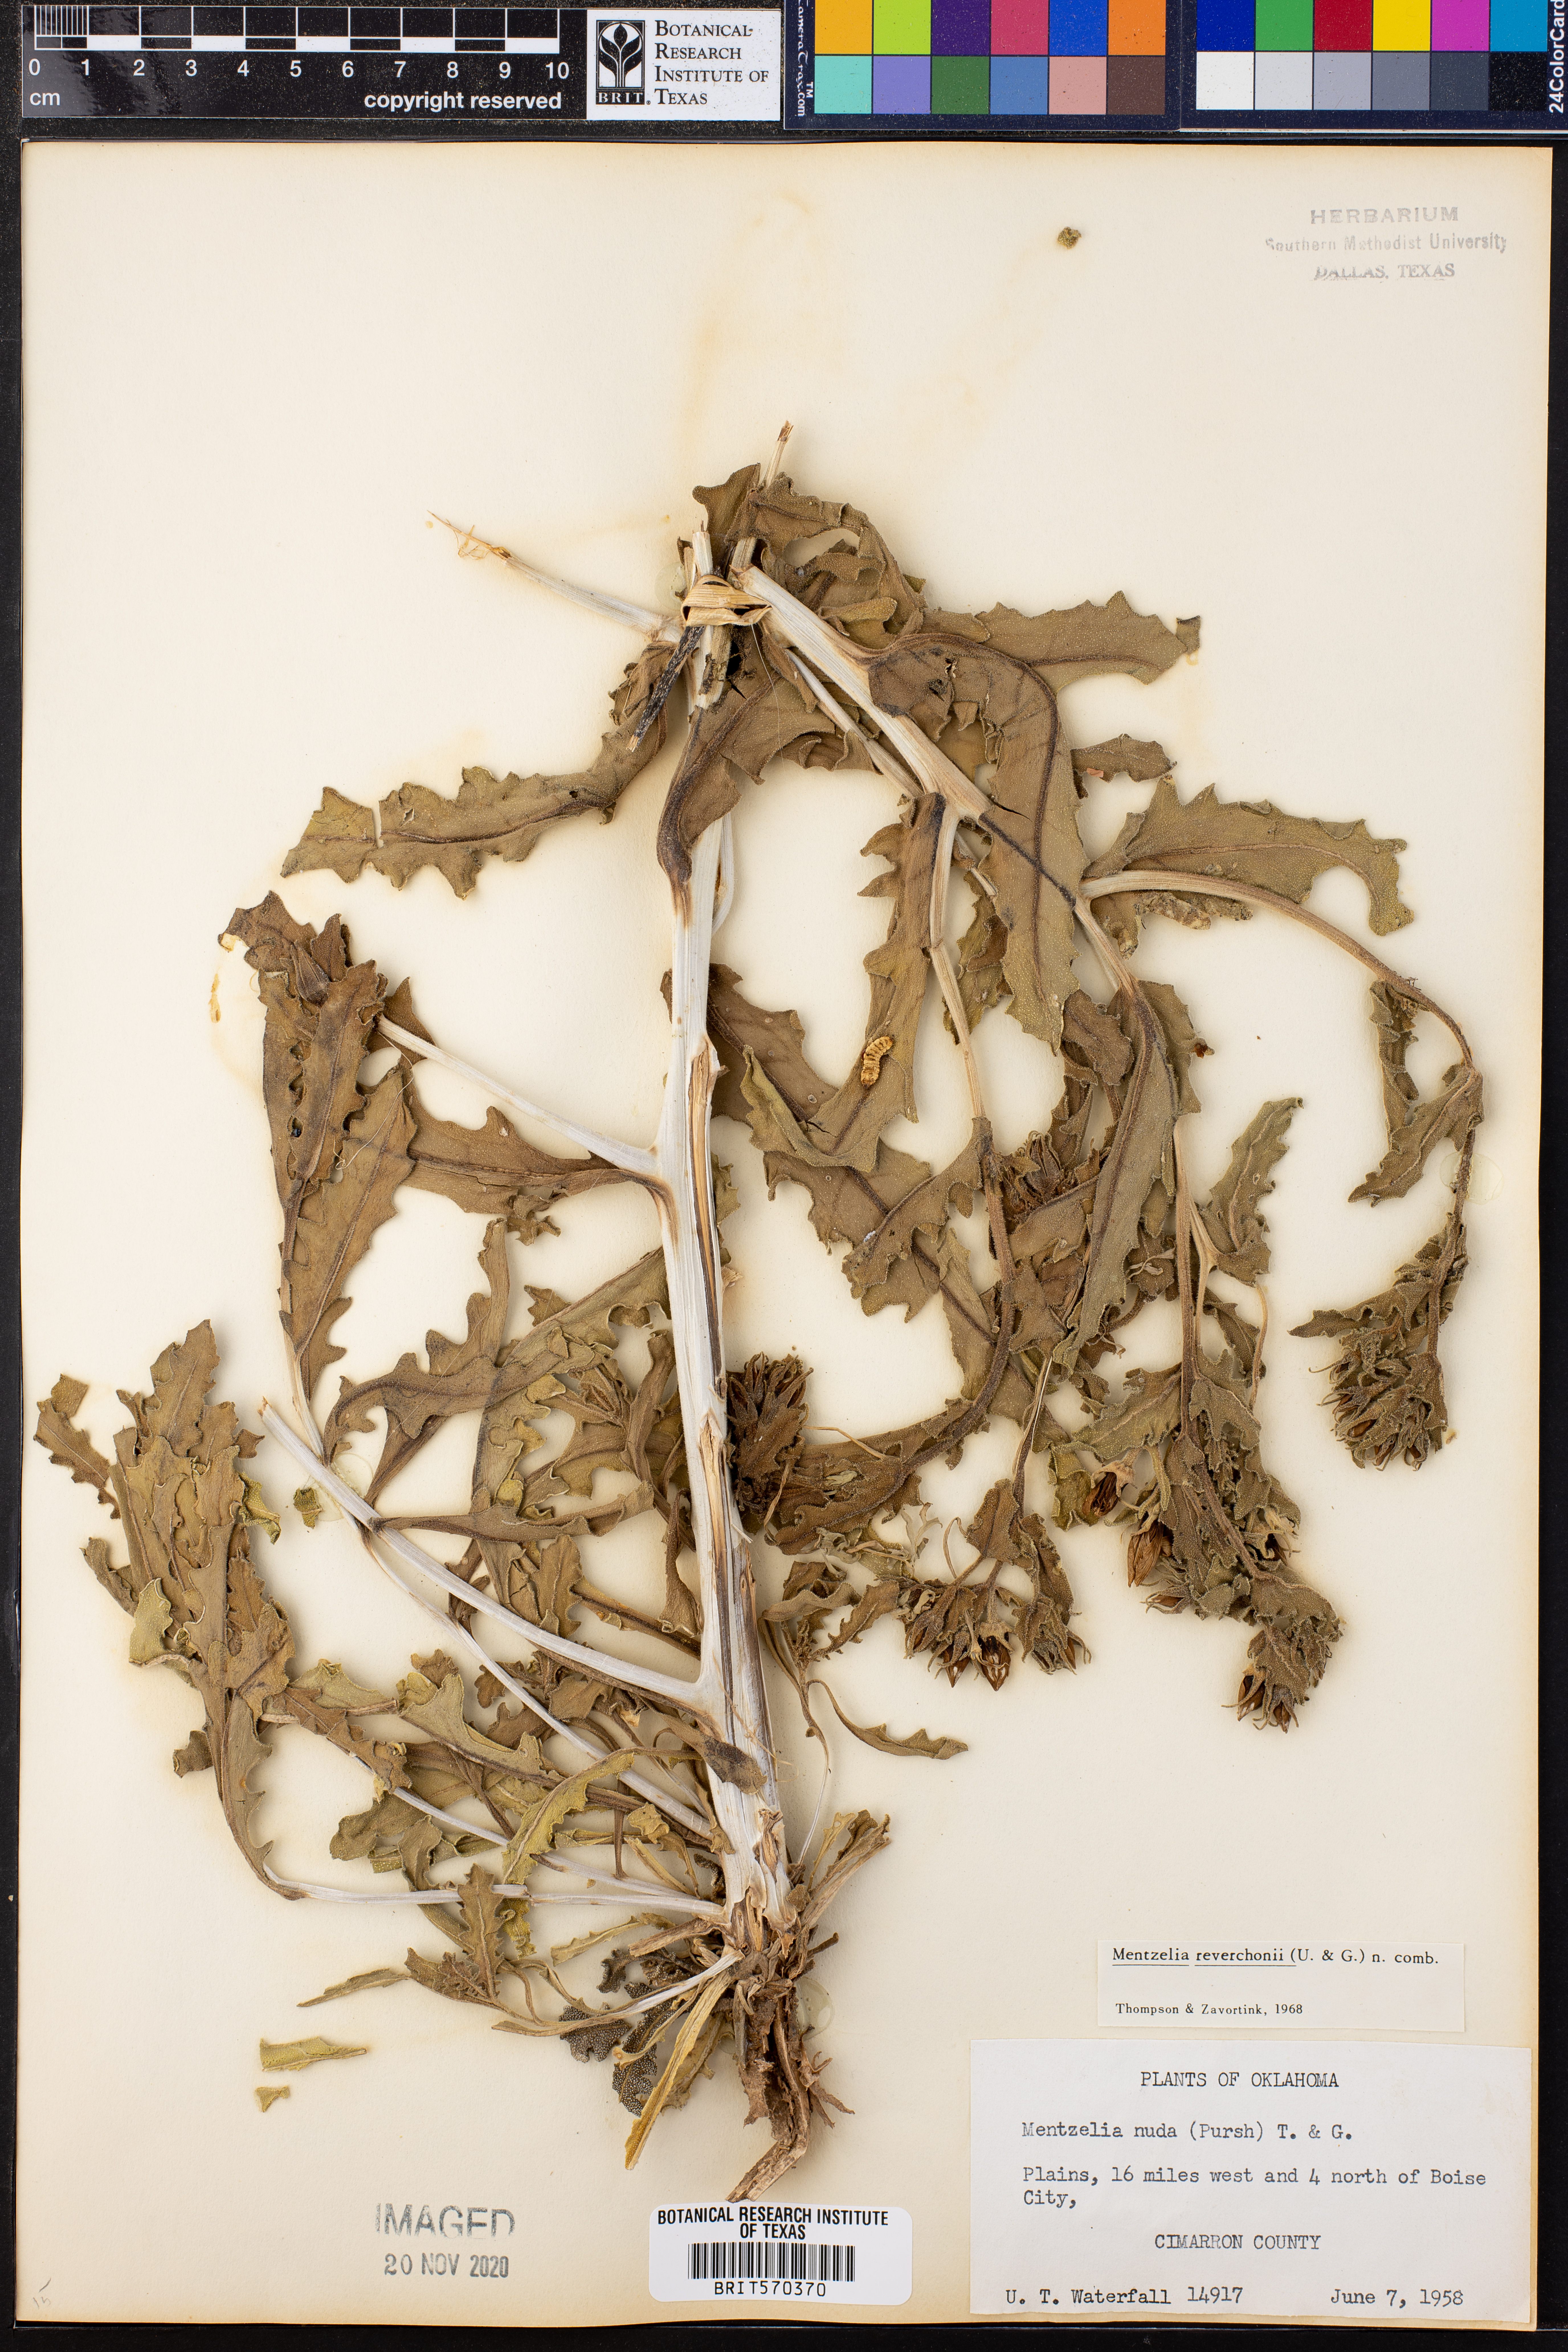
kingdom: Plantae
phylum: Tracheophyta
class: Magnoliopsida
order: Cornales
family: Loasaceae
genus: Mentzelia
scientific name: Mentzelia reverchonii
